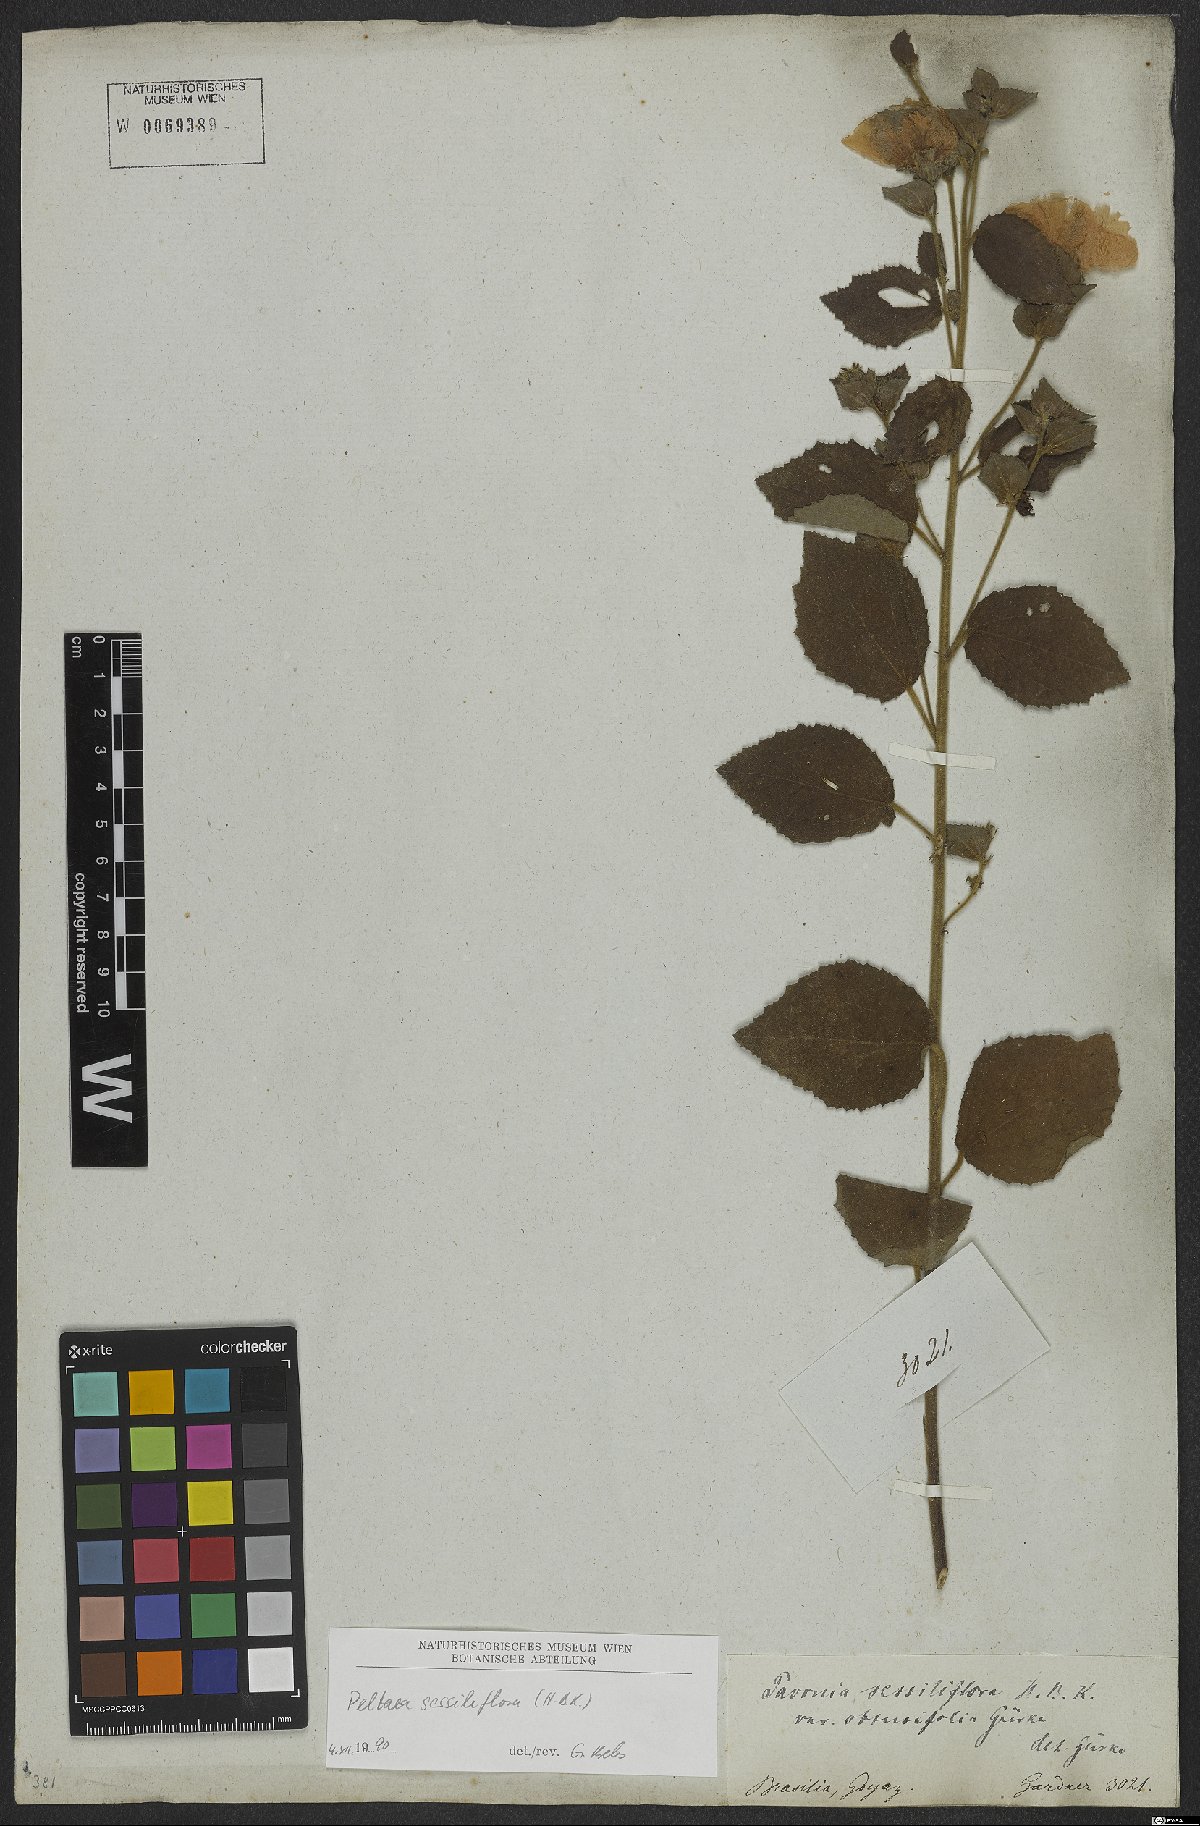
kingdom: Plantae
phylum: Tracheophyta
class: Magnoliopsida
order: Malvales
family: Malvaceae
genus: Peltaea
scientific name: Peltaea sessiliflora
